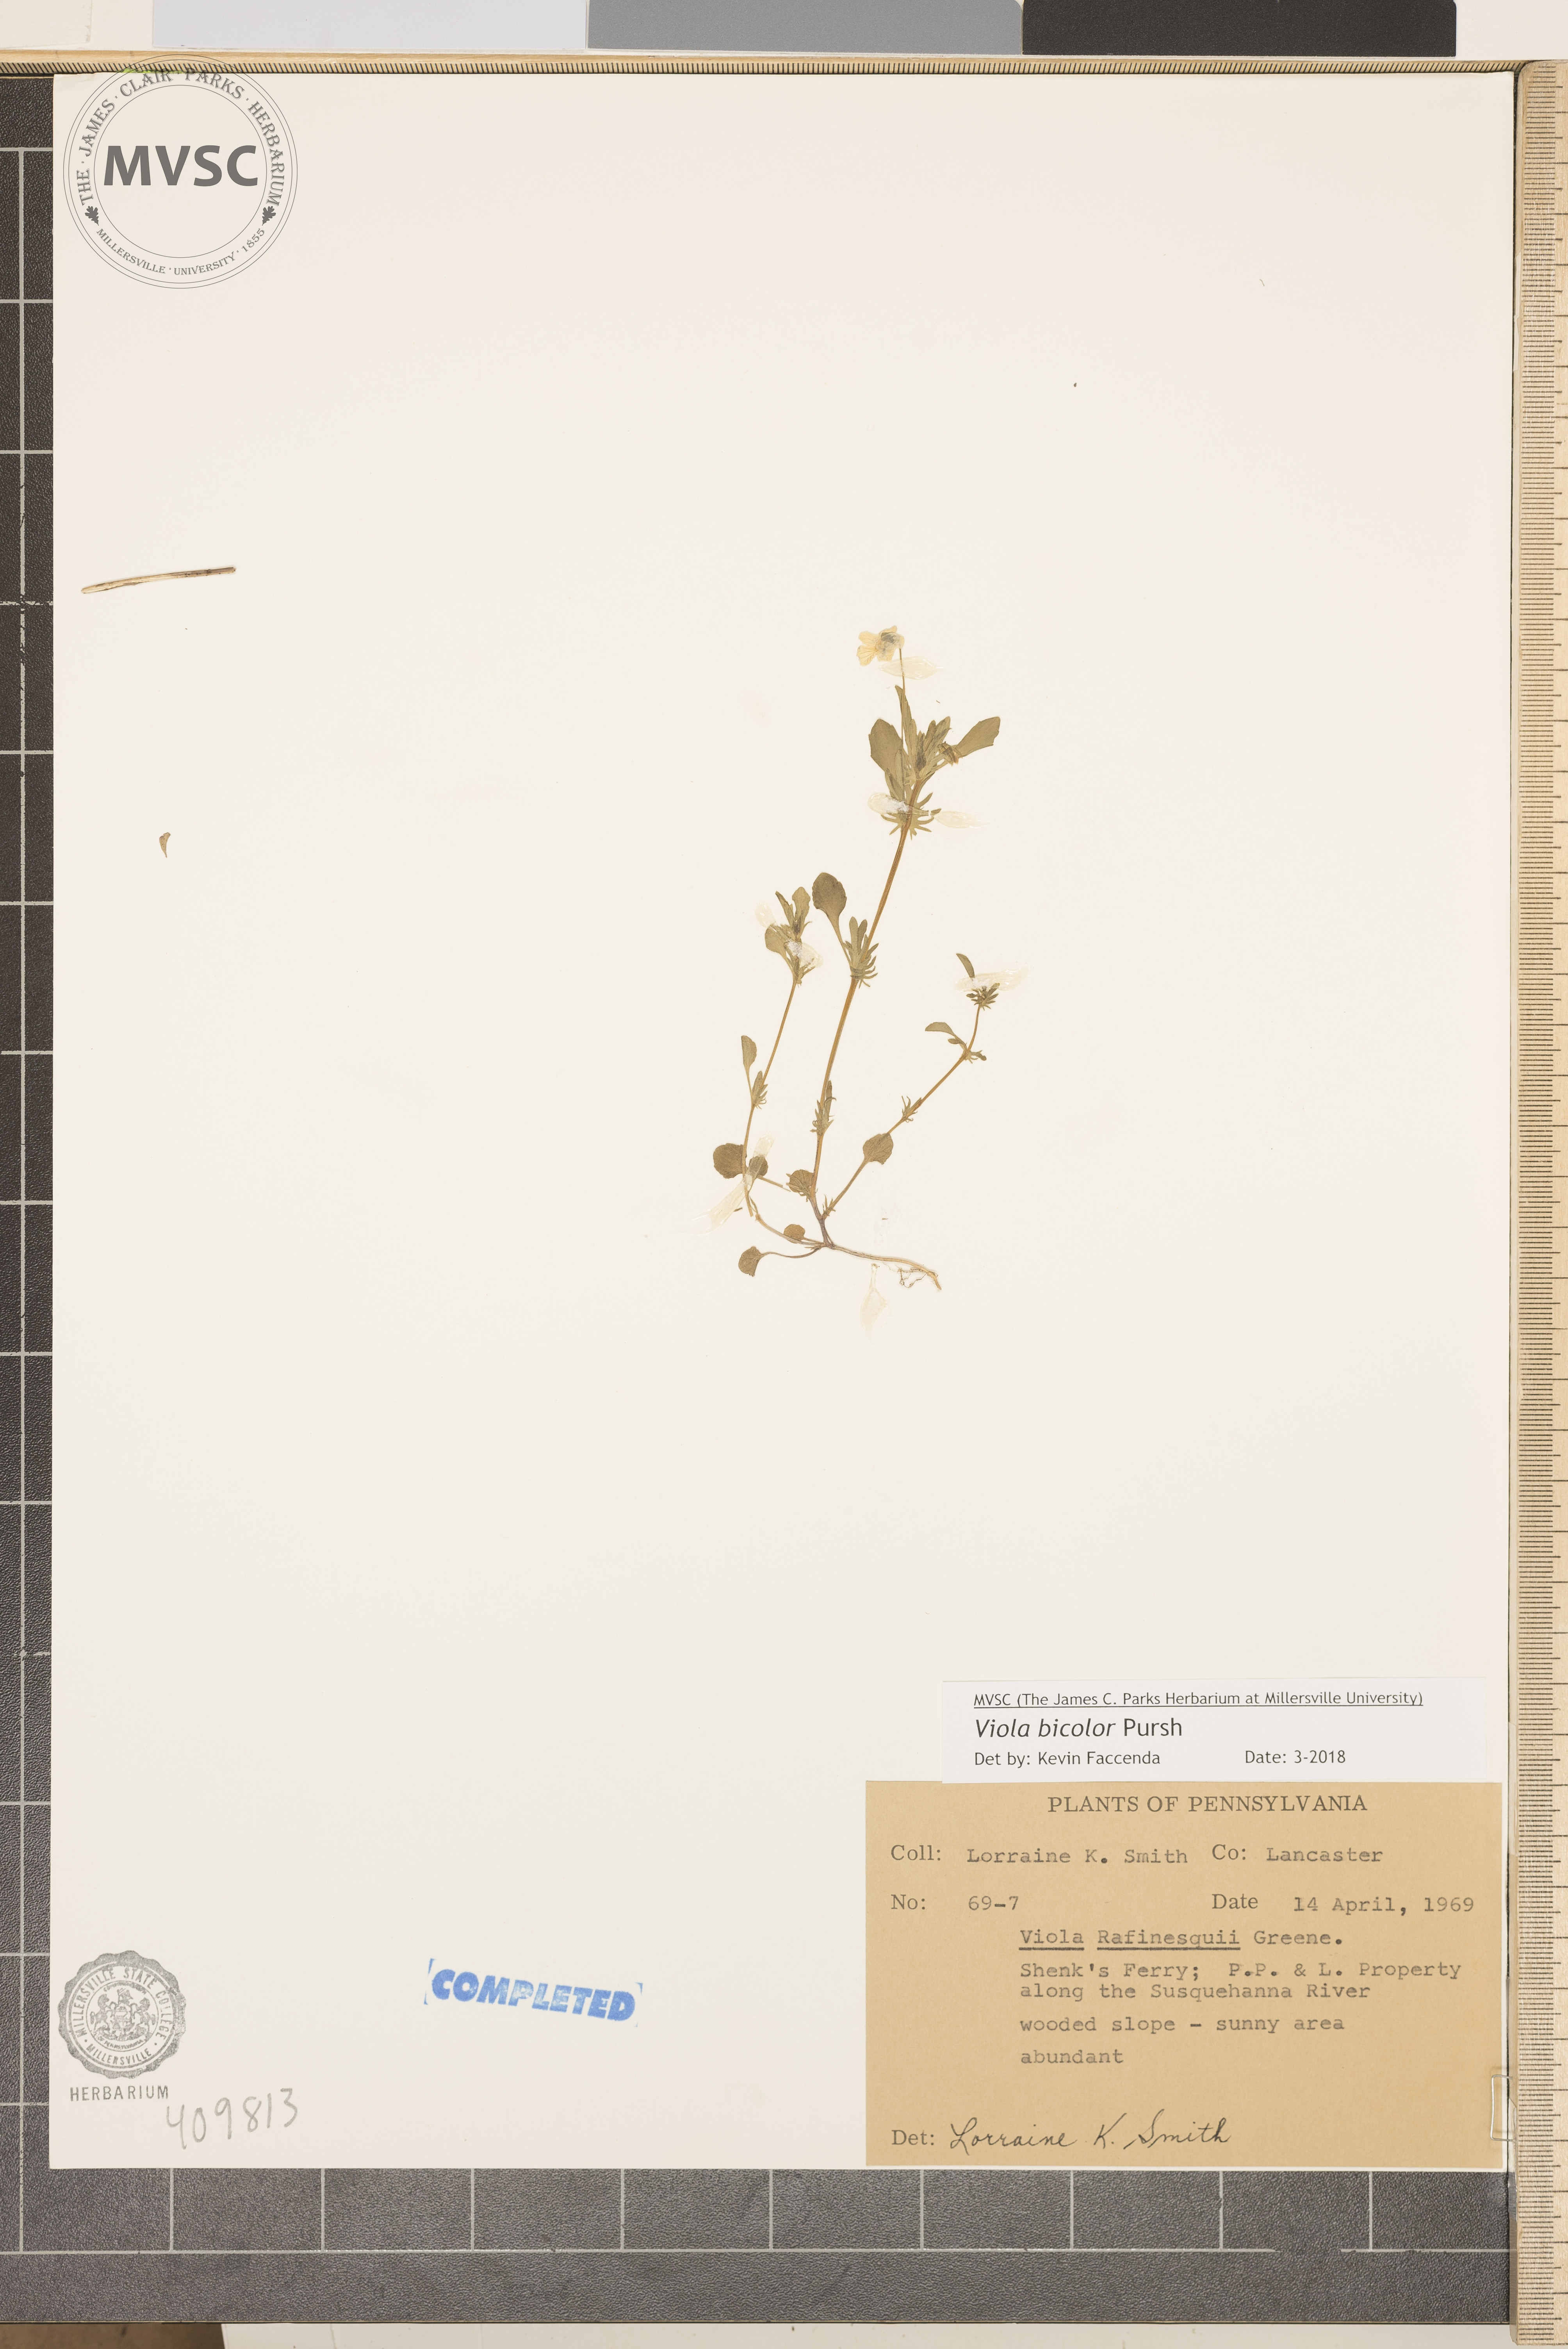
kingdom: Plantae
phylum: Tracheophyta
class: Magnoliopsida
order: Malpighiales
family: Violaceae
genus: Viola
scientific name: Viola rafinesquei
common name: field pansy
